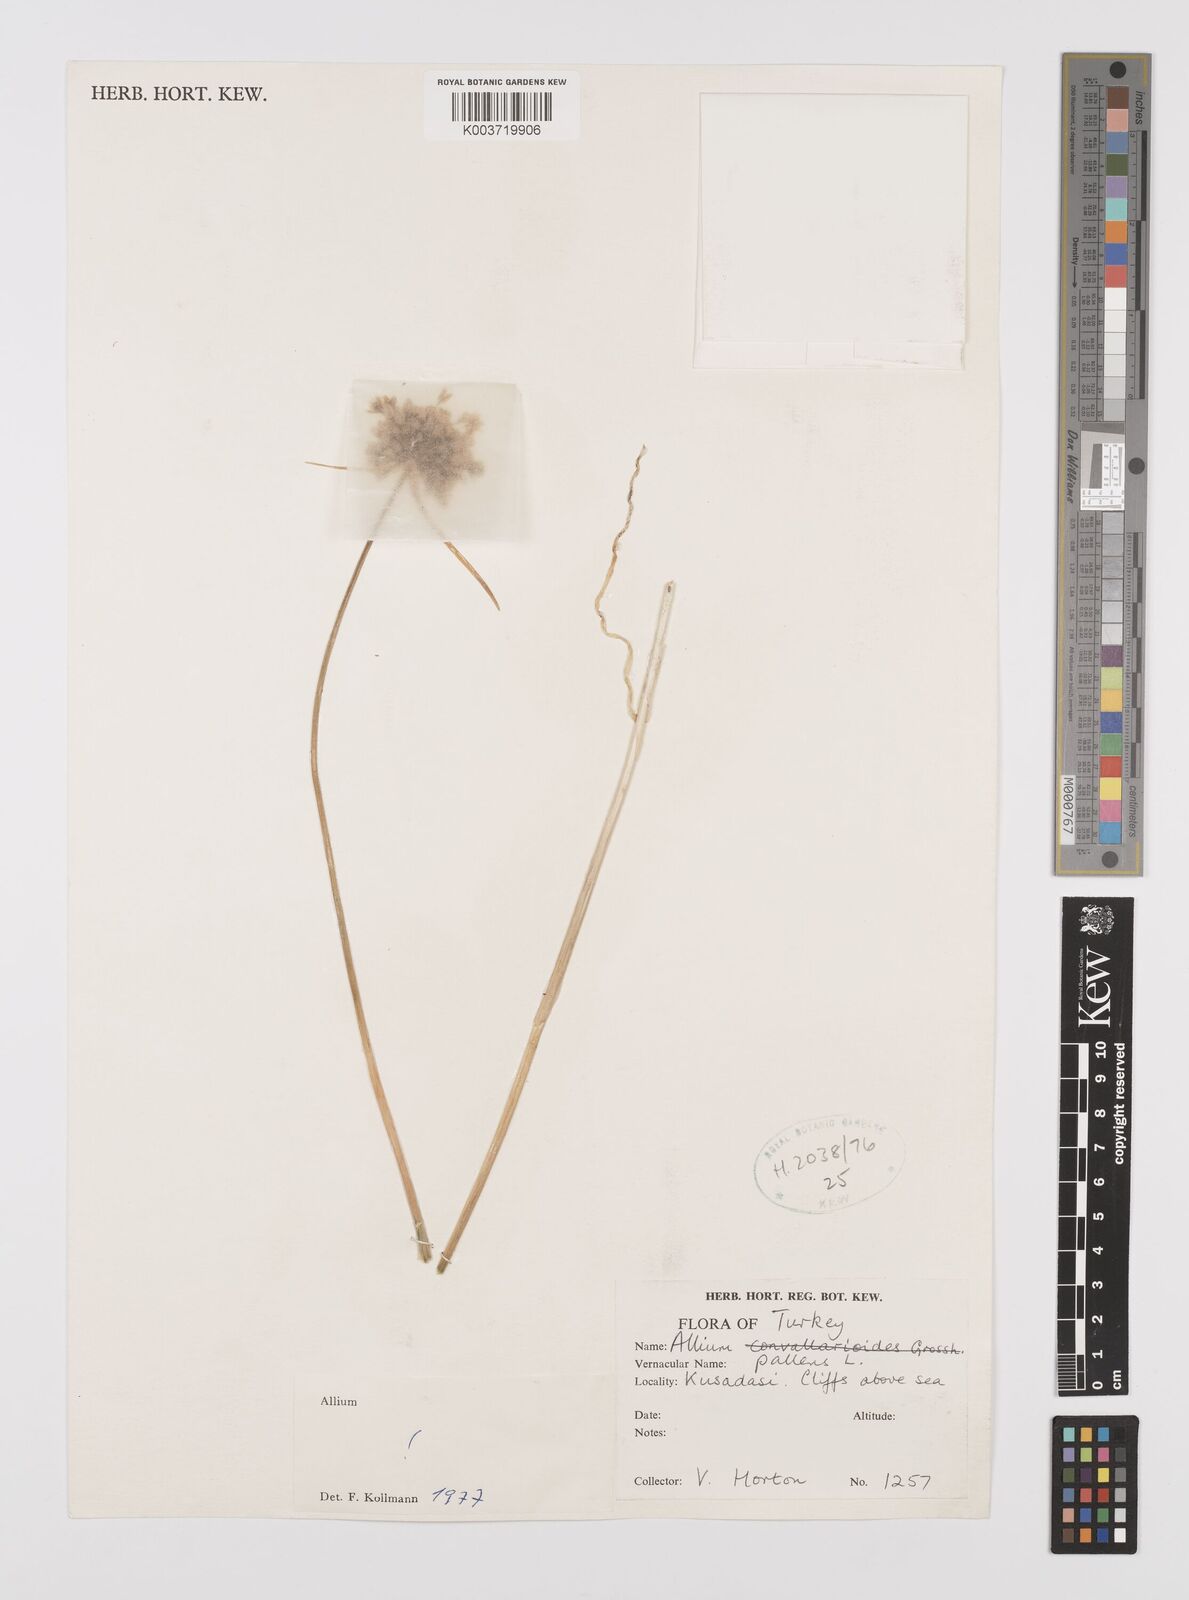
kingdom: Plantae
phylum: Tracheophyta
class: Liliopsida
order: Asparagales
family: Amaryllidaceae
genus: Allium
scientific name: Allium pallens
